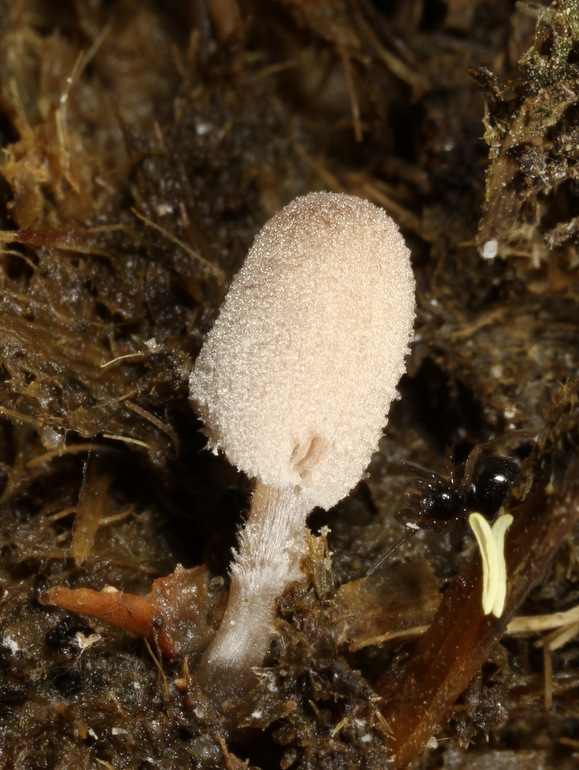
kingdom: Fungi
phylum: Basidiomycota
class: Agaricomycetes
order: Agaricales
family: Psathyrellaceae
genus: Narcissea
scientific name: Narcissea ephemeroides
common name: ring-blækhat
